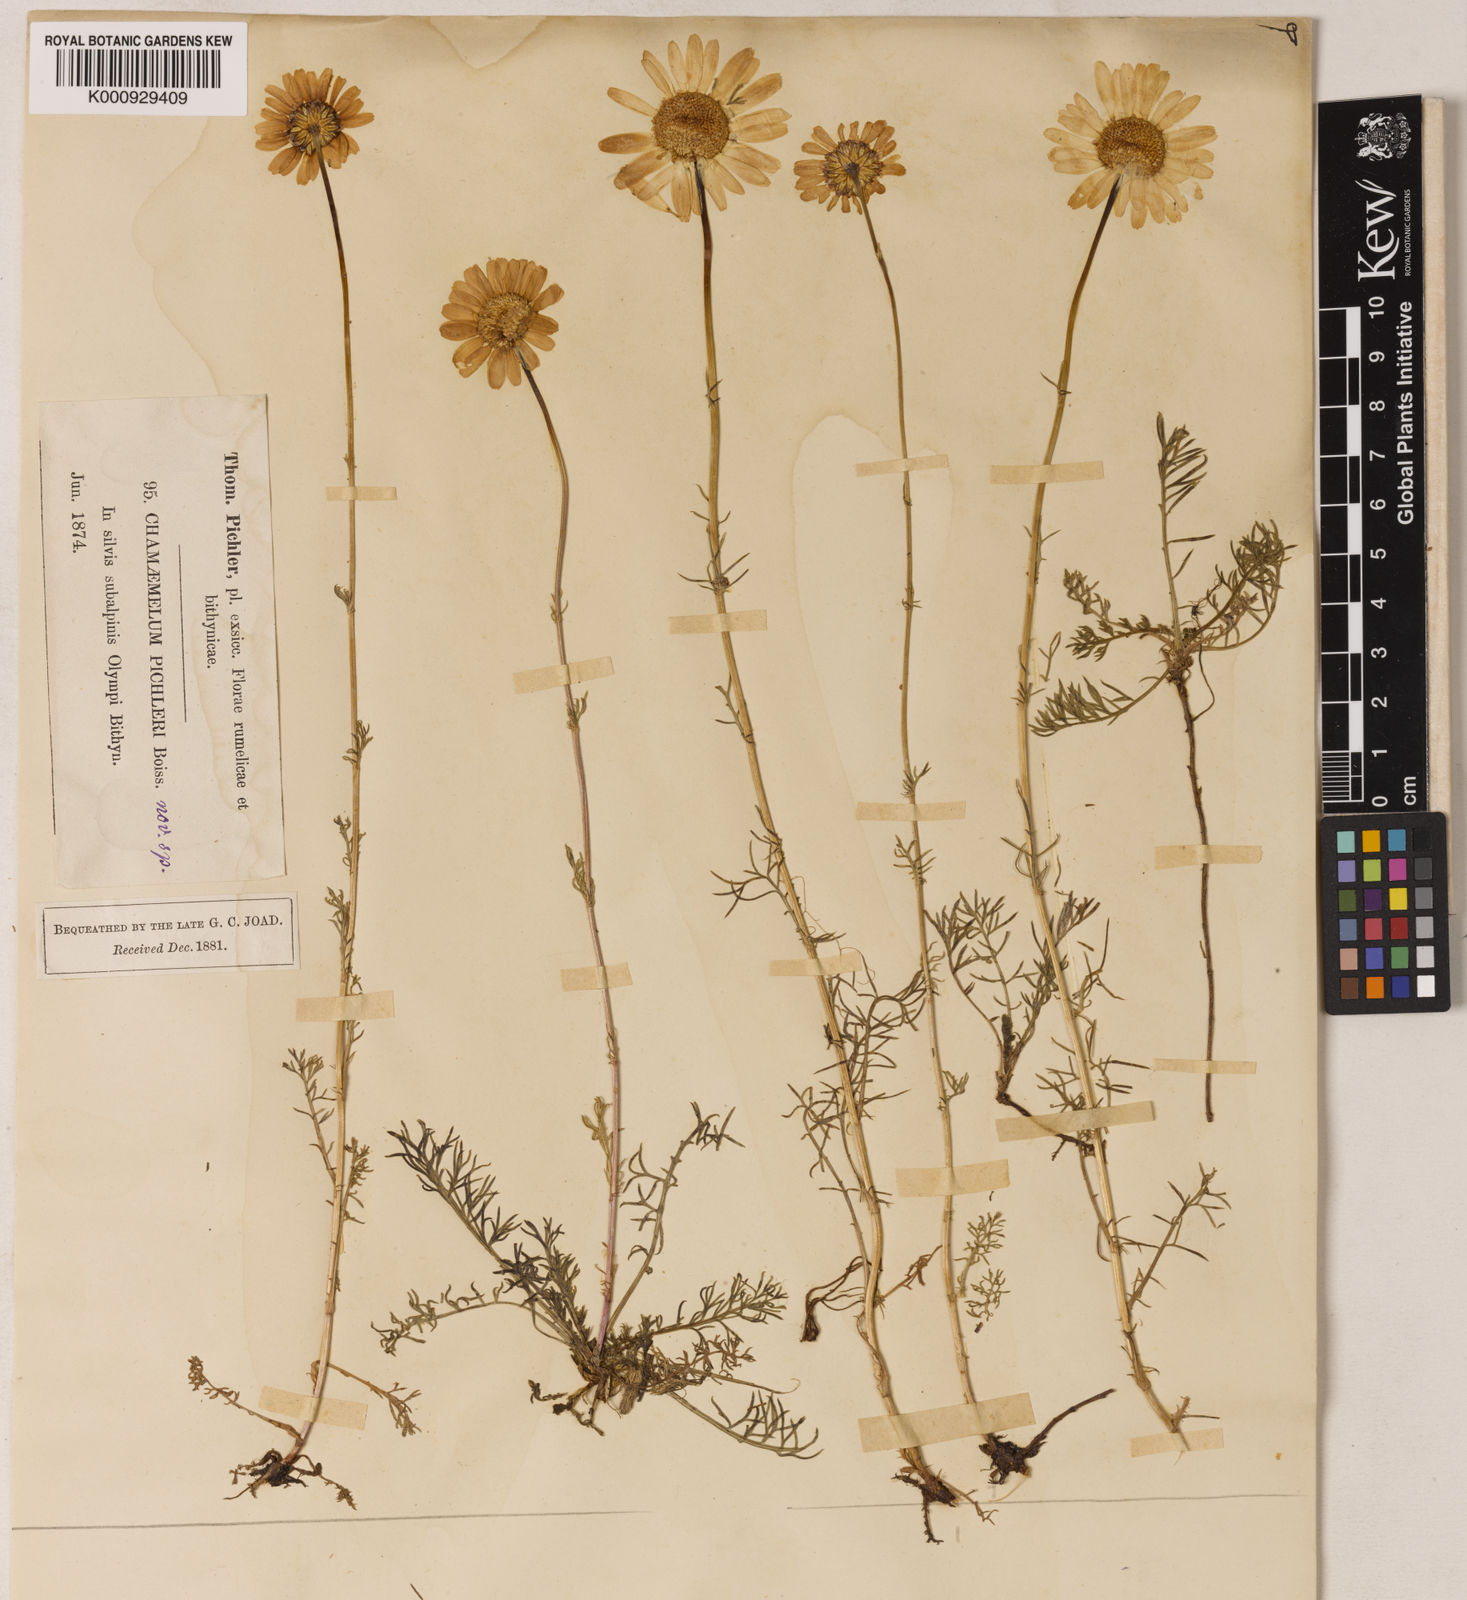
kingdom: Plantae
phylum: Tracheophyta
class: Magnoliopsida
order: Asterales
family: Asteraceae
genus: Tripleurospermum
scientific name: Tripleurospermum pichleri
